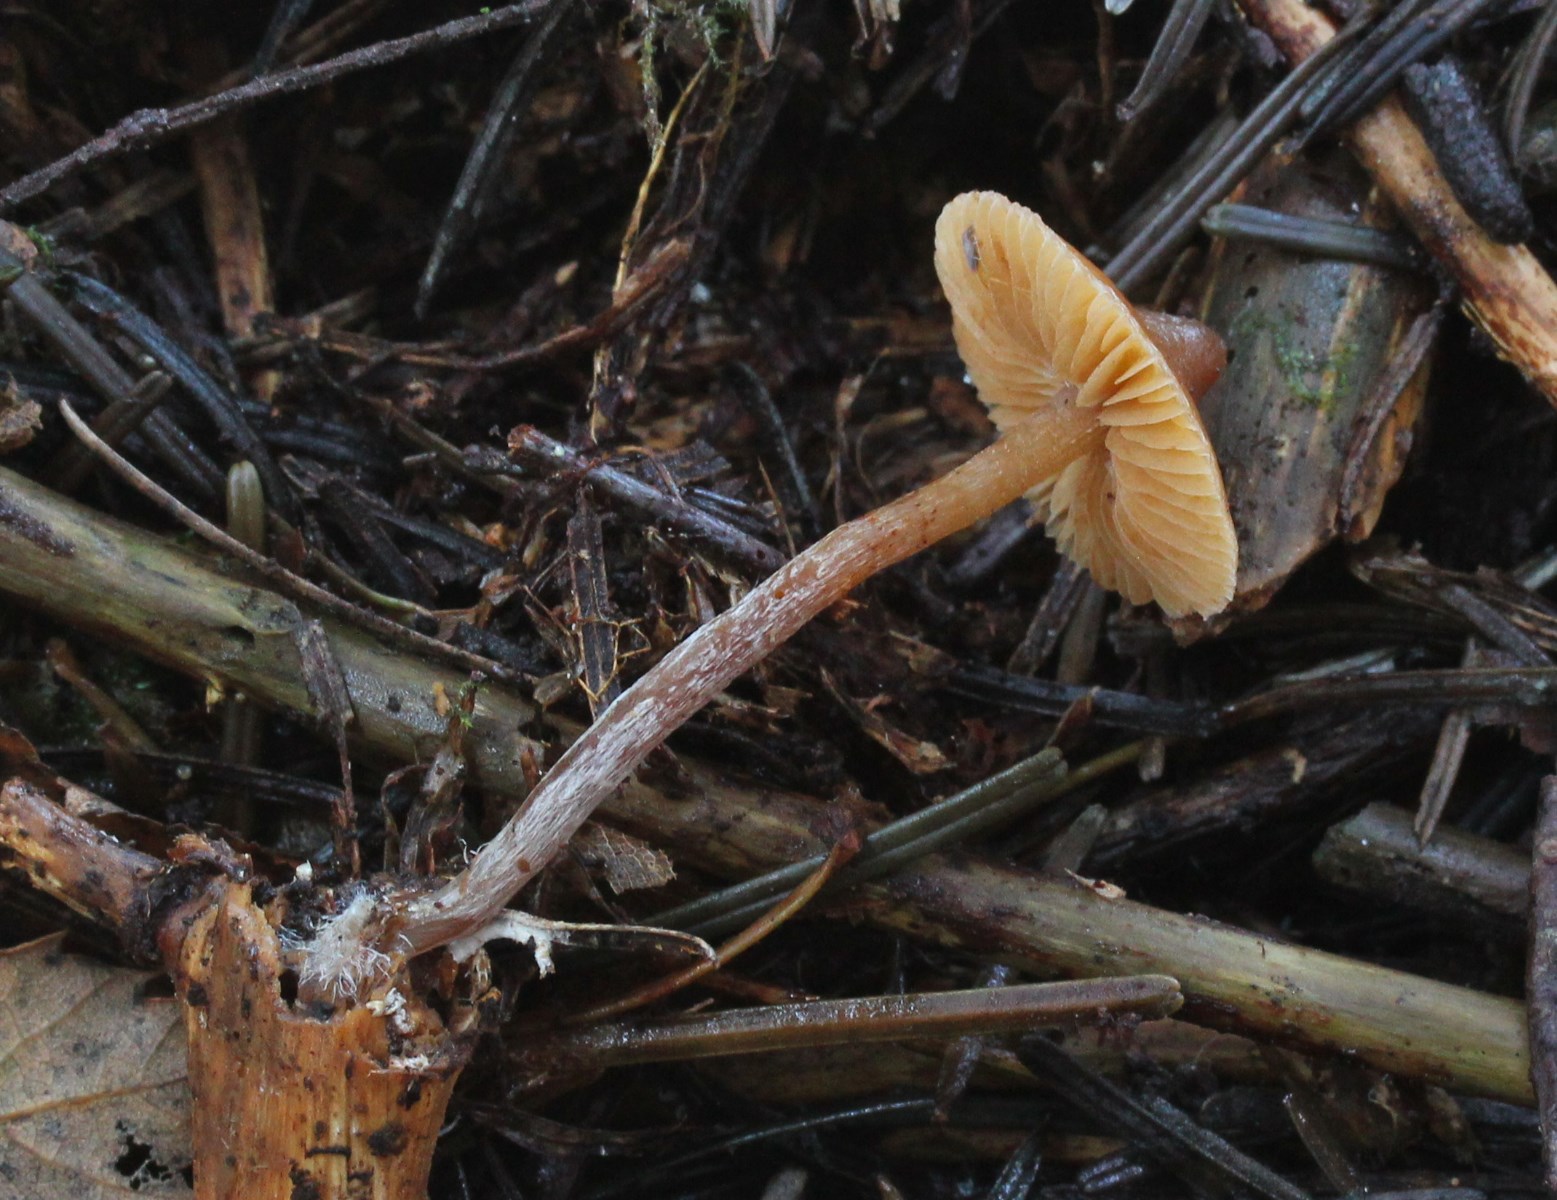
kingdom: Fungi
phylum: Basidiomycota
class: Agaricomycetes
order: Agaricales
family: Hymenogastraceae
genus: Galerina
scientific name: Galerina triscopa
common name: spidspuklet hjelmhat
